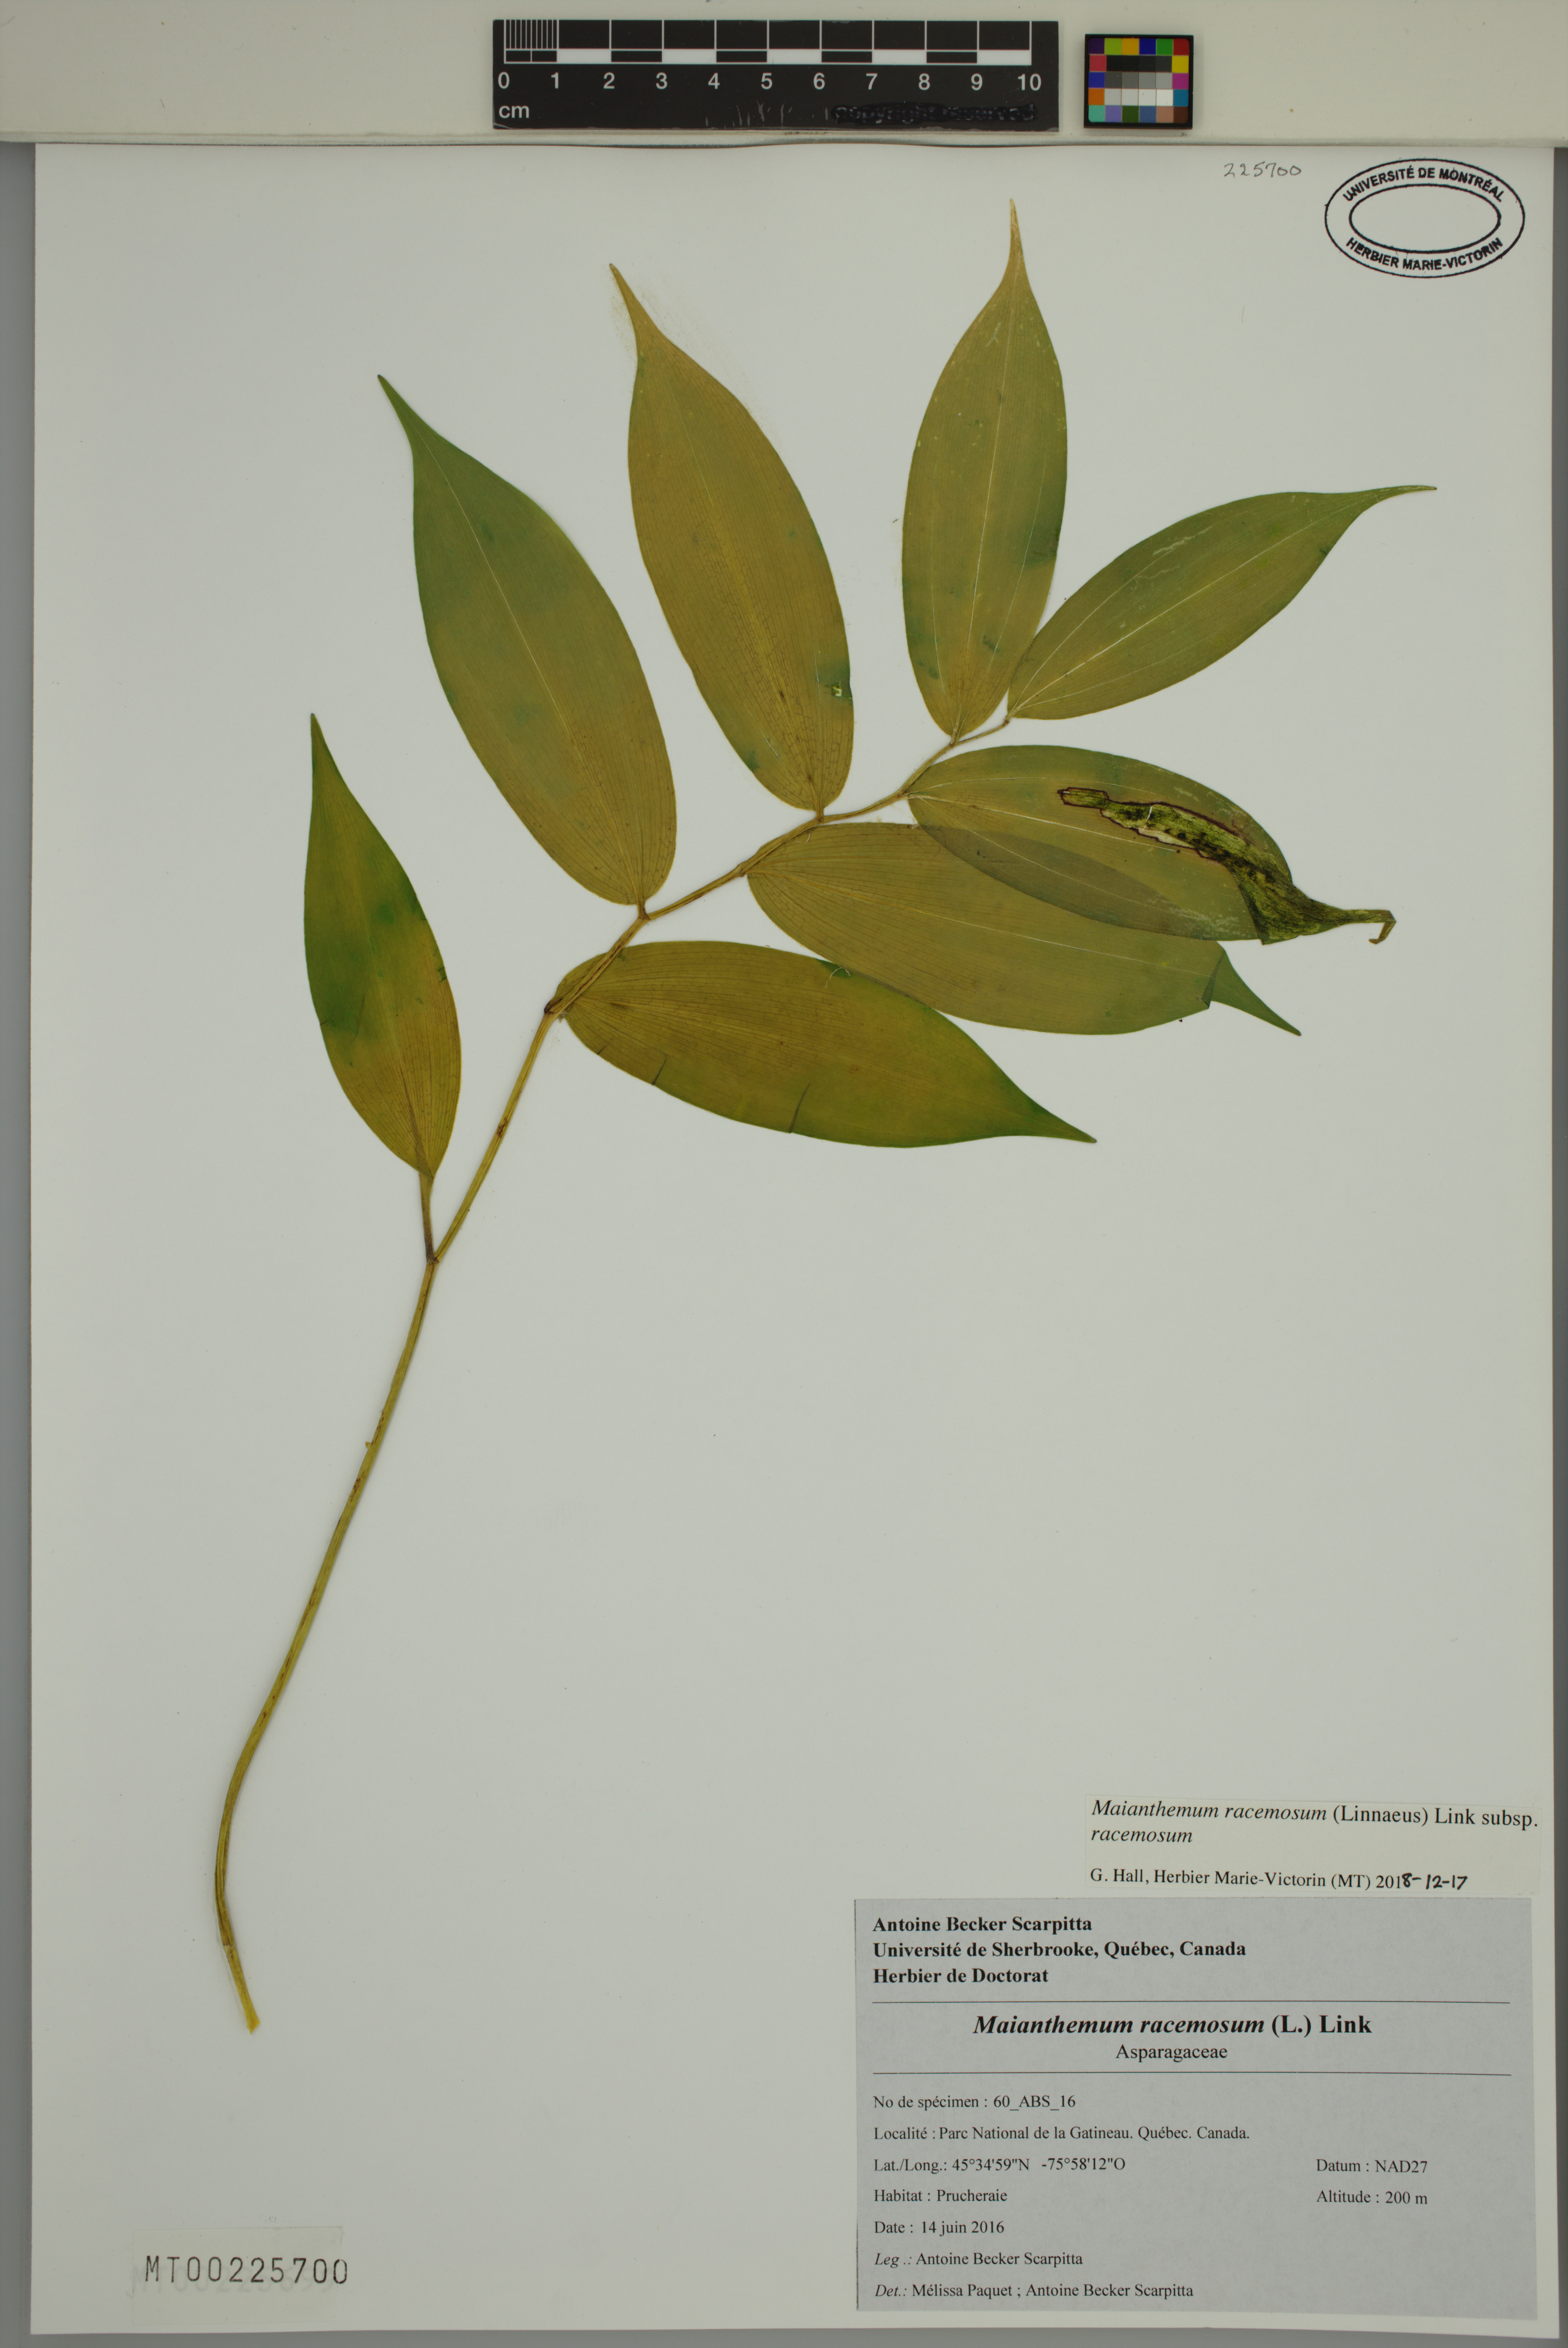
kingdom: Plantae
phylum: Tracheophyta
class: Liliopsida
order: Asparagales
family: Asparagaceae
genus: Maianthemum
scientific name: Maianthemum racemosum
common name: False spikenard
